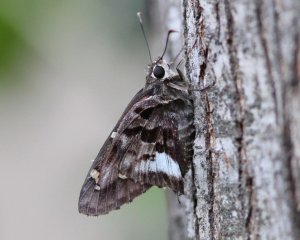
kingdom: Animalia
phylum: Arthropoda
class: Insecta
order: Lepidoptera
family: Hesperiidae
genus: Codatractus
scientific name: Codatractus alcaeus
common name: White-crescent Longtail
